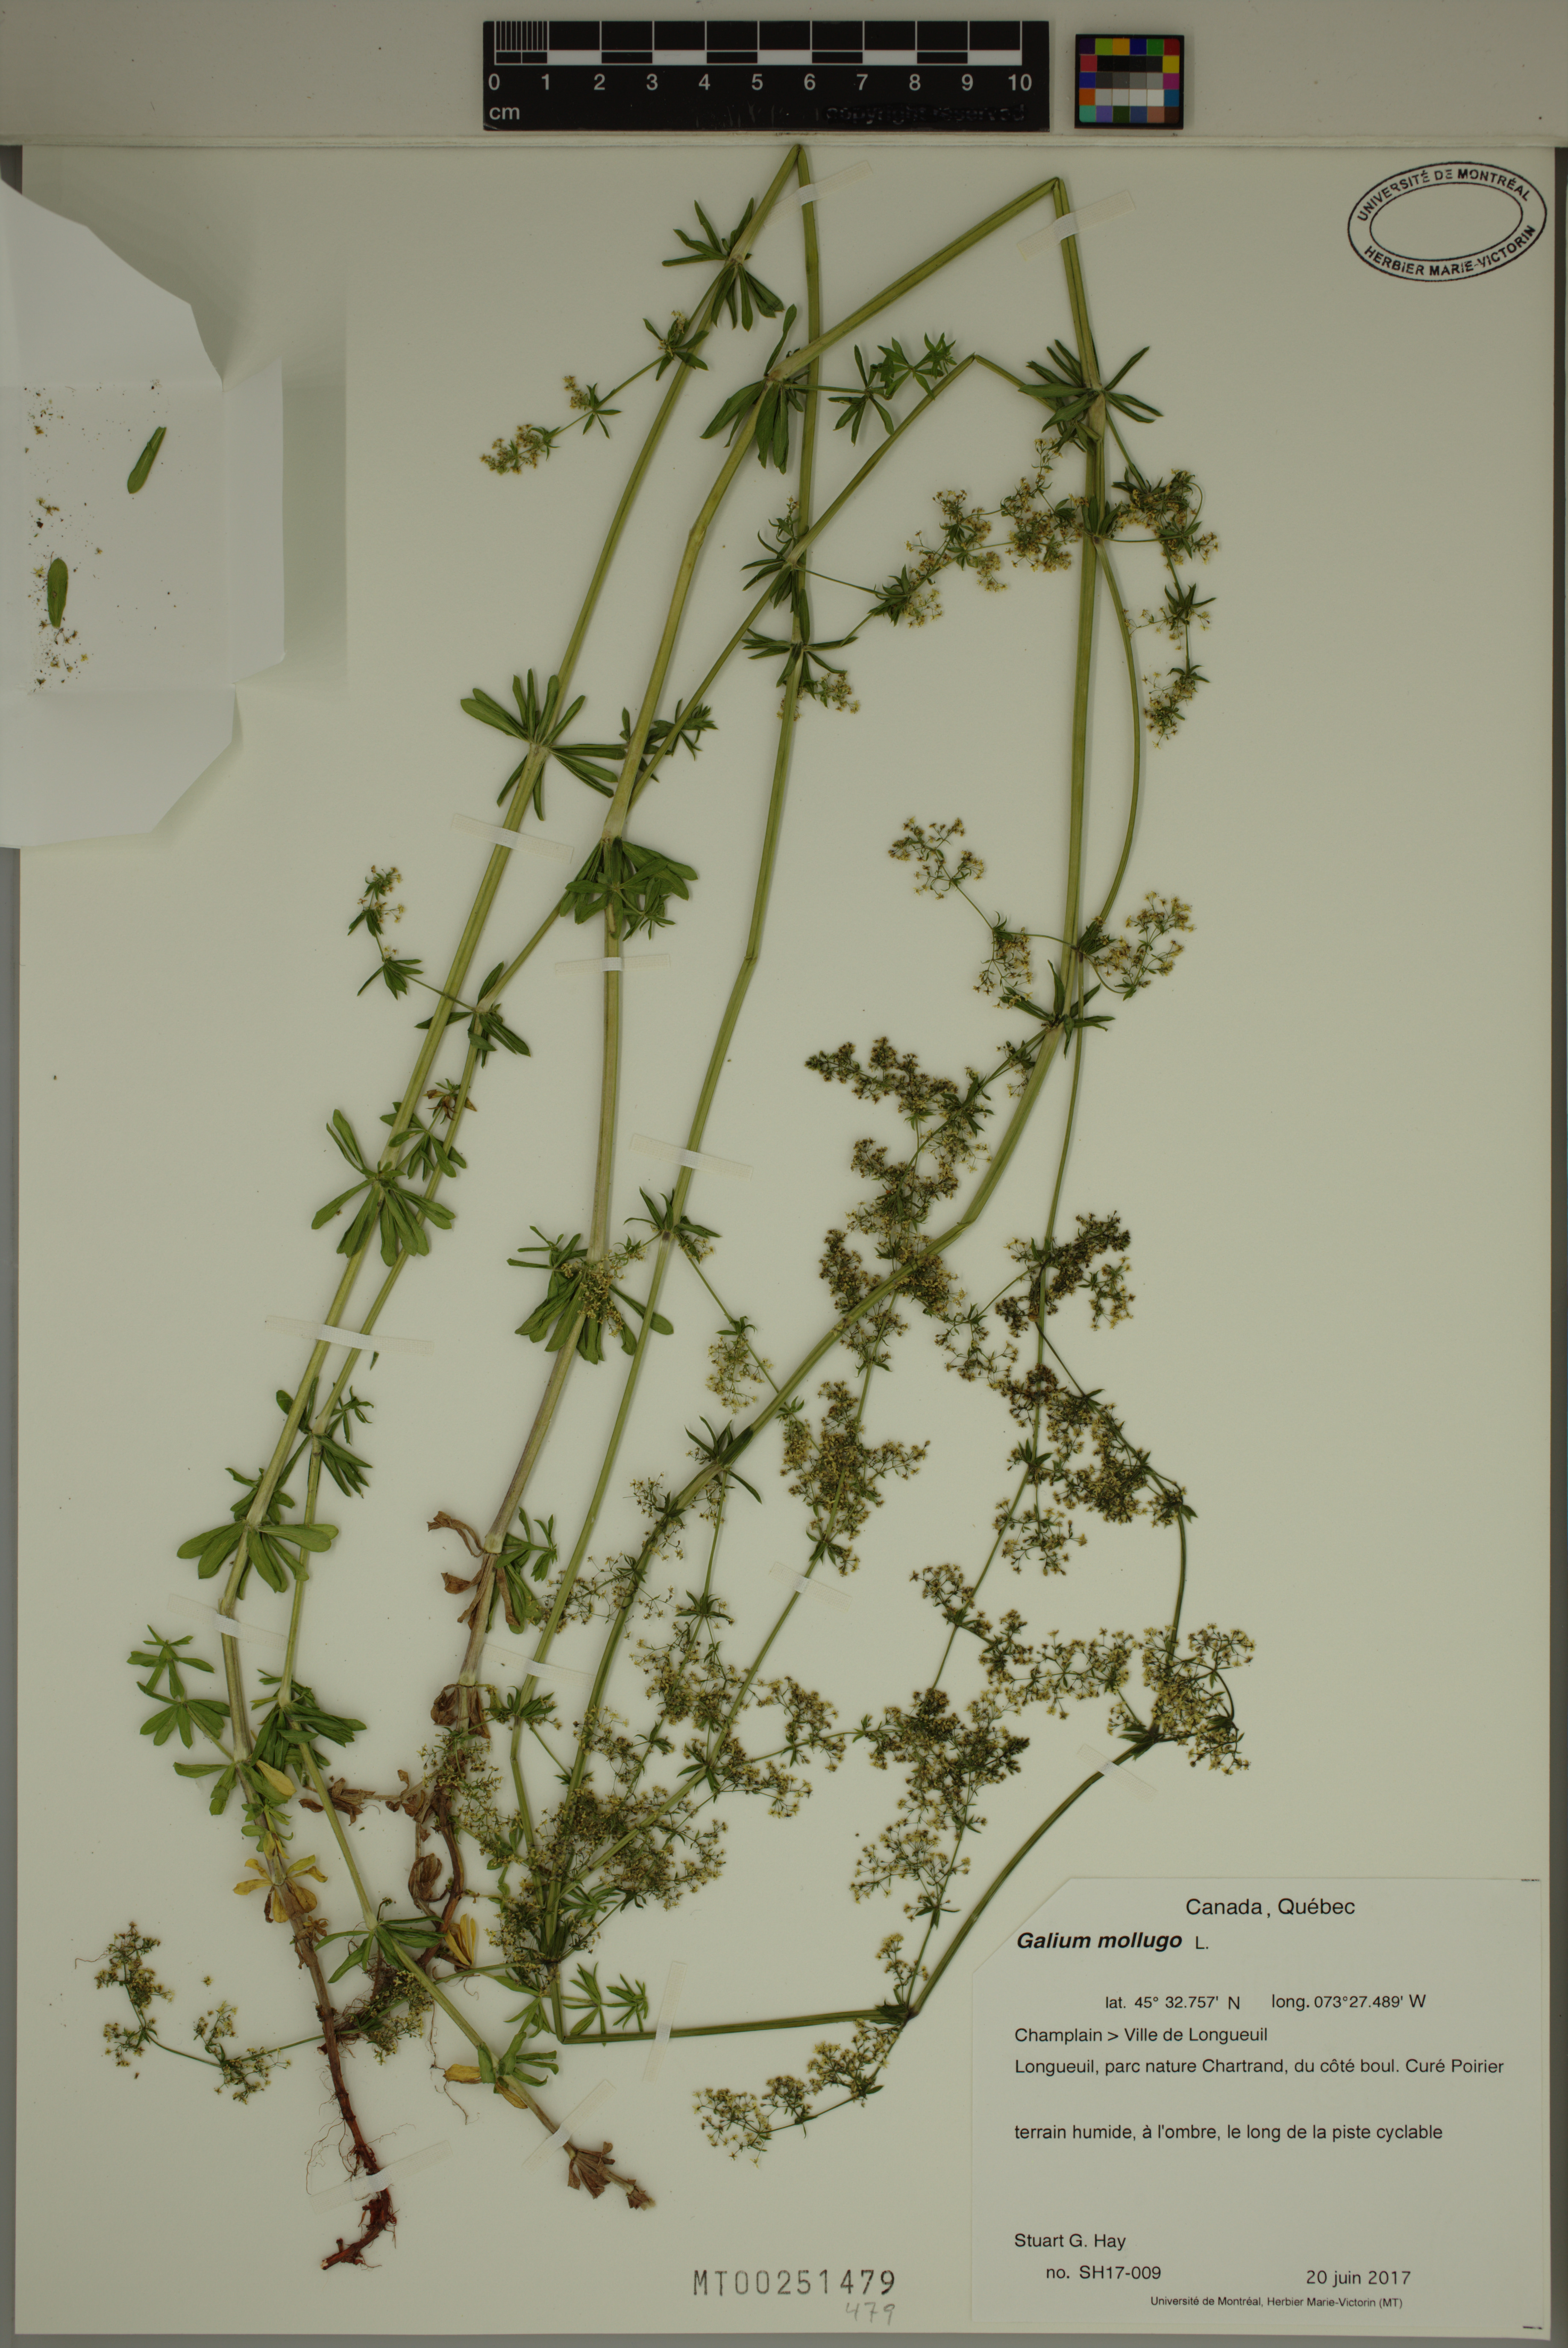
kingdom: Plantae
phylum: Tracheophyta
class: Magnoliopsida
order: Gentianales
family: Rubiaceae
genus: Galium
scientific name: Galium mollugo
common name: Hedge bedstraw
